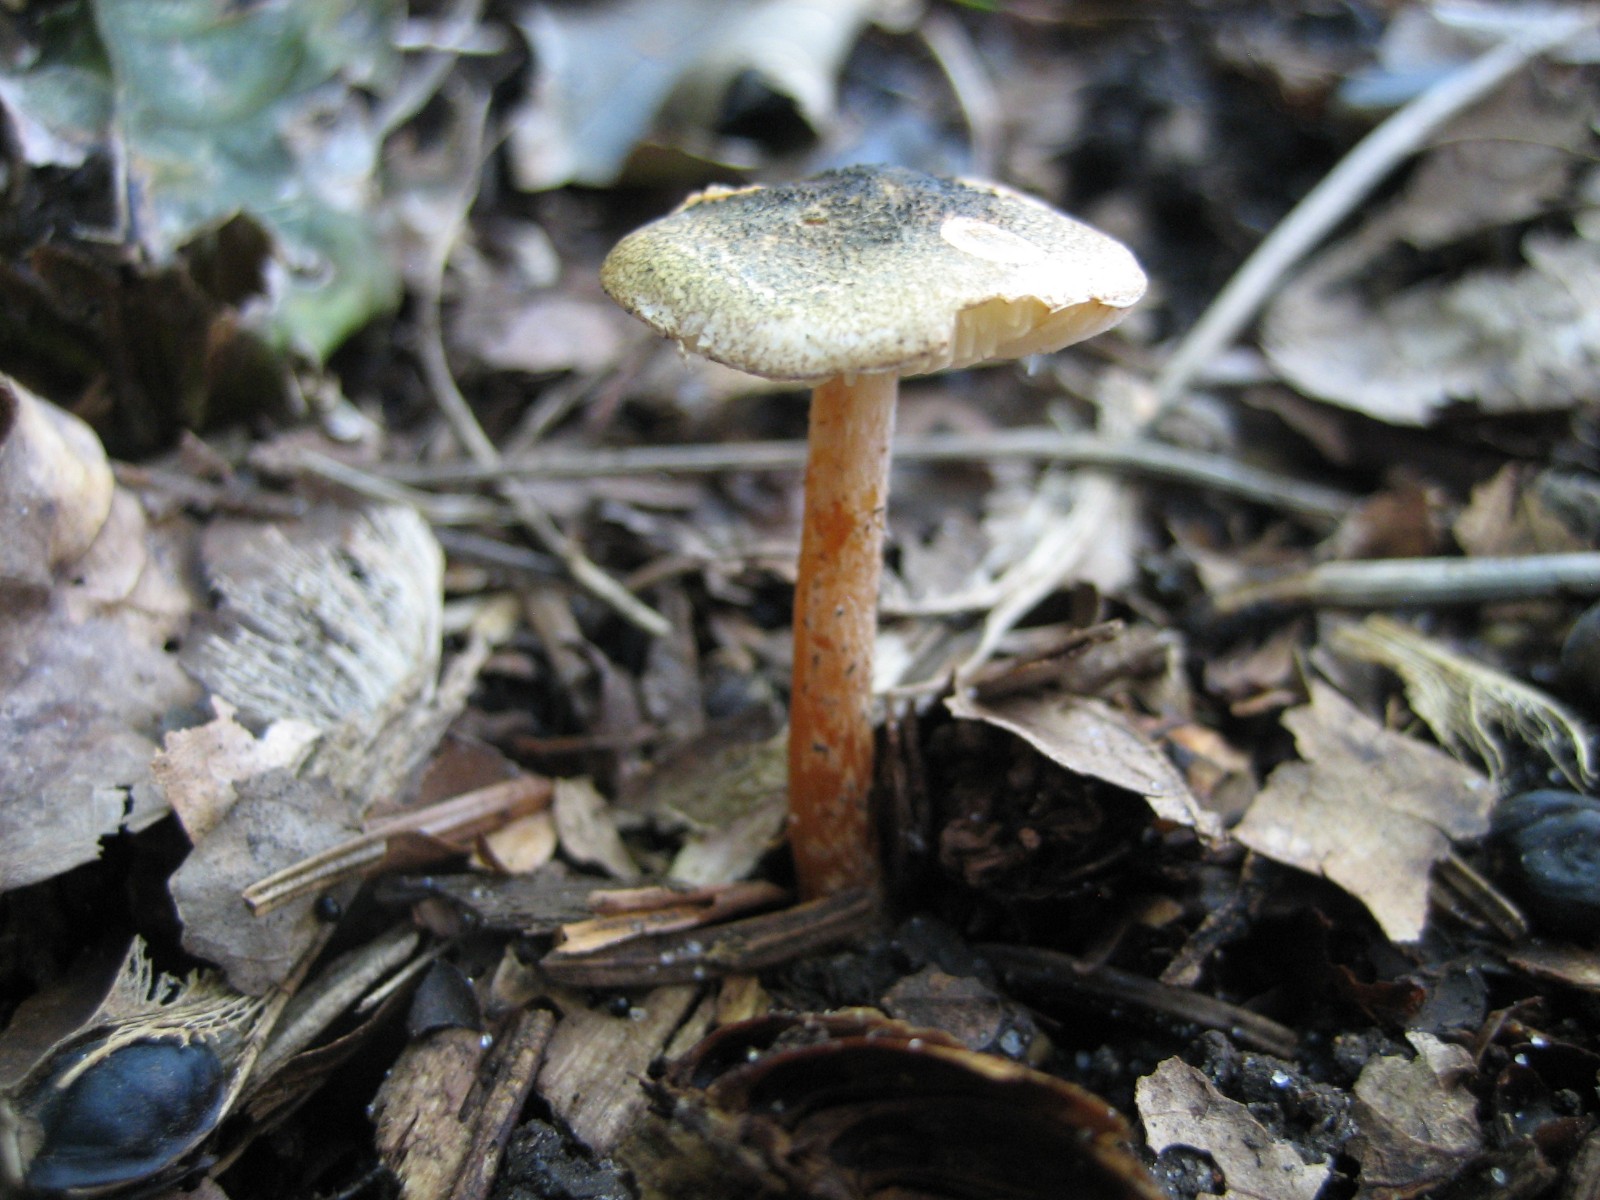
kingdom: Fungi
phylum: Basidiomycota
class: Agaricomycetes
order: Agaricales
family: Agaricaceae
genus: Lepiota
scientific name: Lepiota grangei
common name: grønskællet parasolhat
